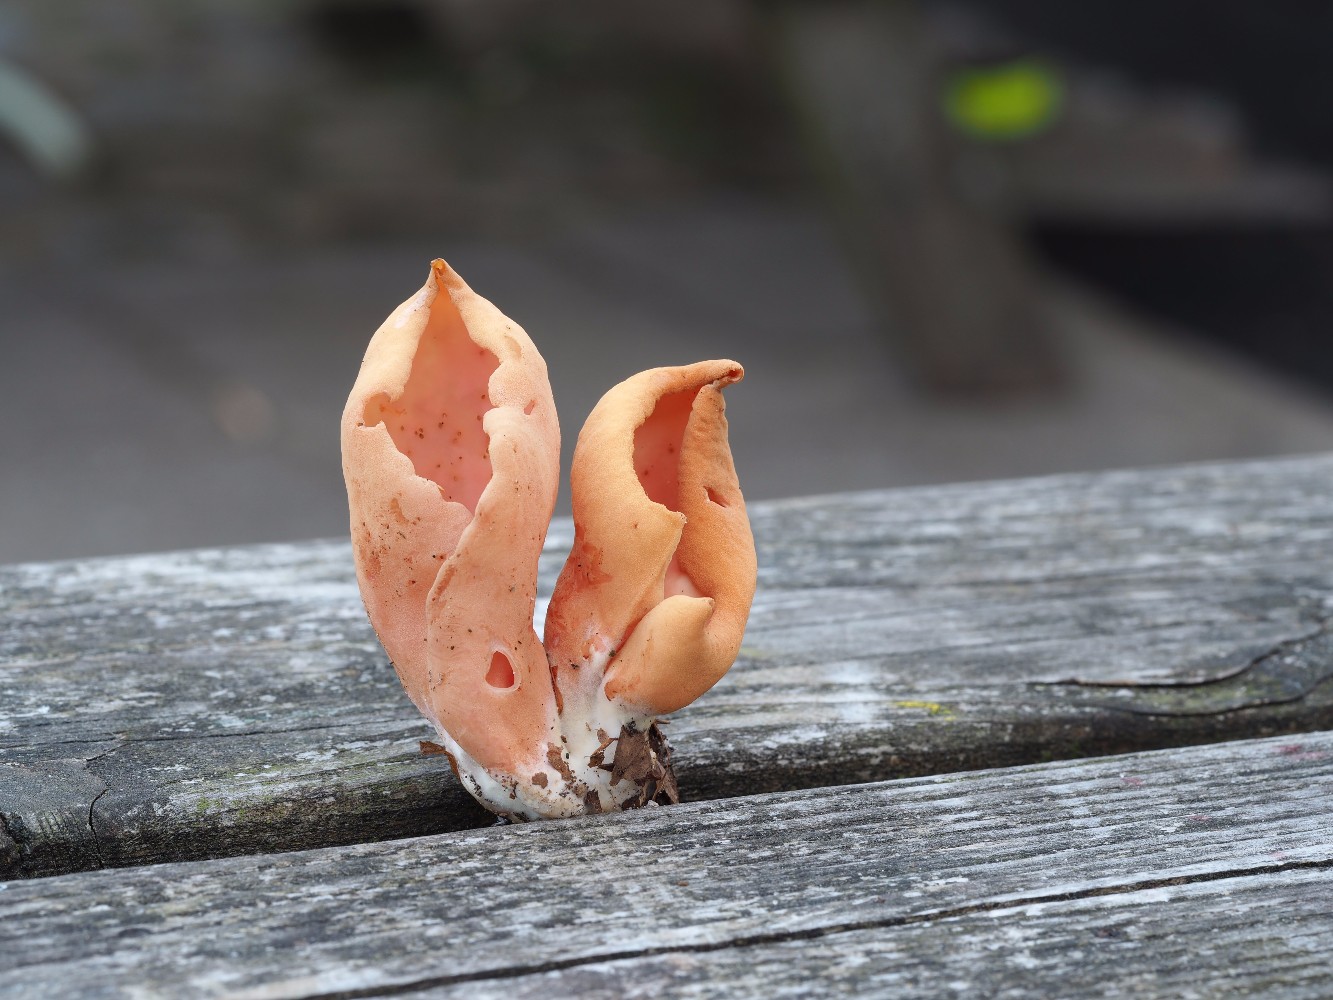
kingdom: Fungi
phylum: Ascomycota
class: Pezizomycetes
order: Pezizales
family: Otideaceae
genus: Otidea
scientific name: Otidea onotica
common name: æsel-ørebæger
